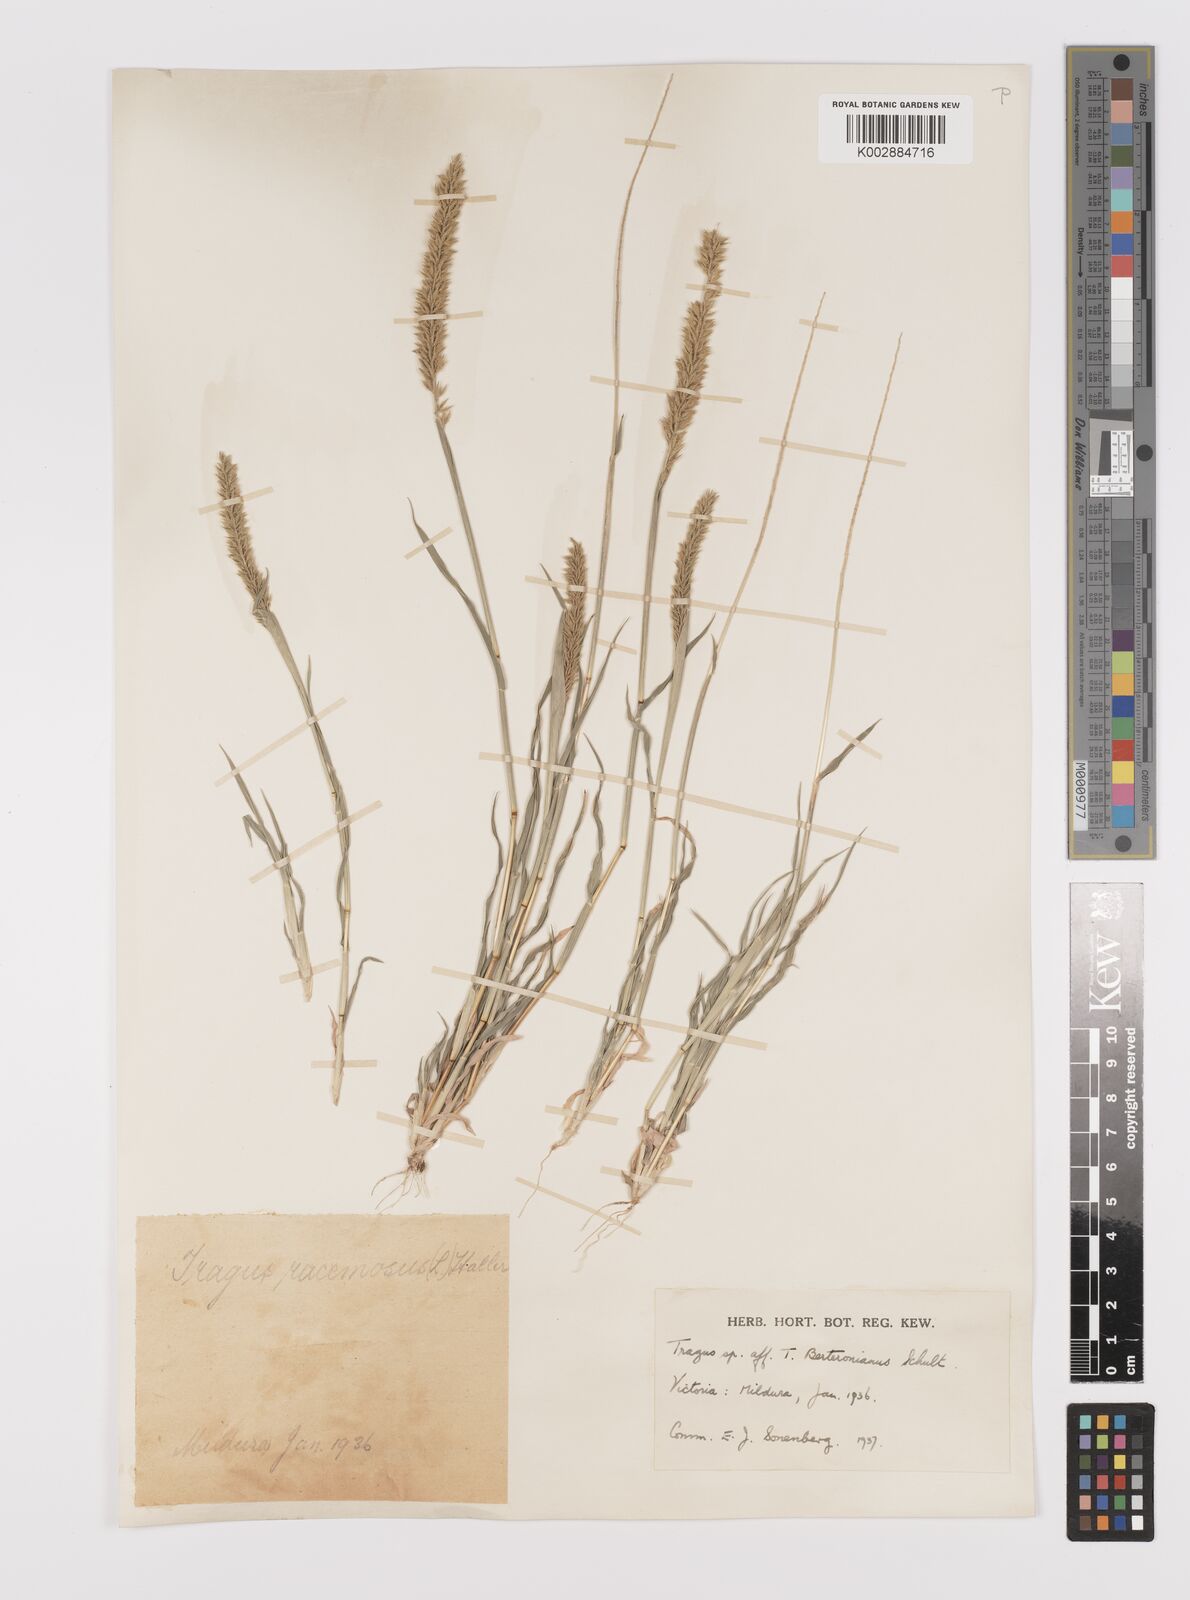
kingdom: Plantae
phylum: Tracheophyta
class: Liliopsida
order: Poales
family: Poaceae
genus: Tragus
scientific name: Tragus australianus
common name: Australian bur-grass
